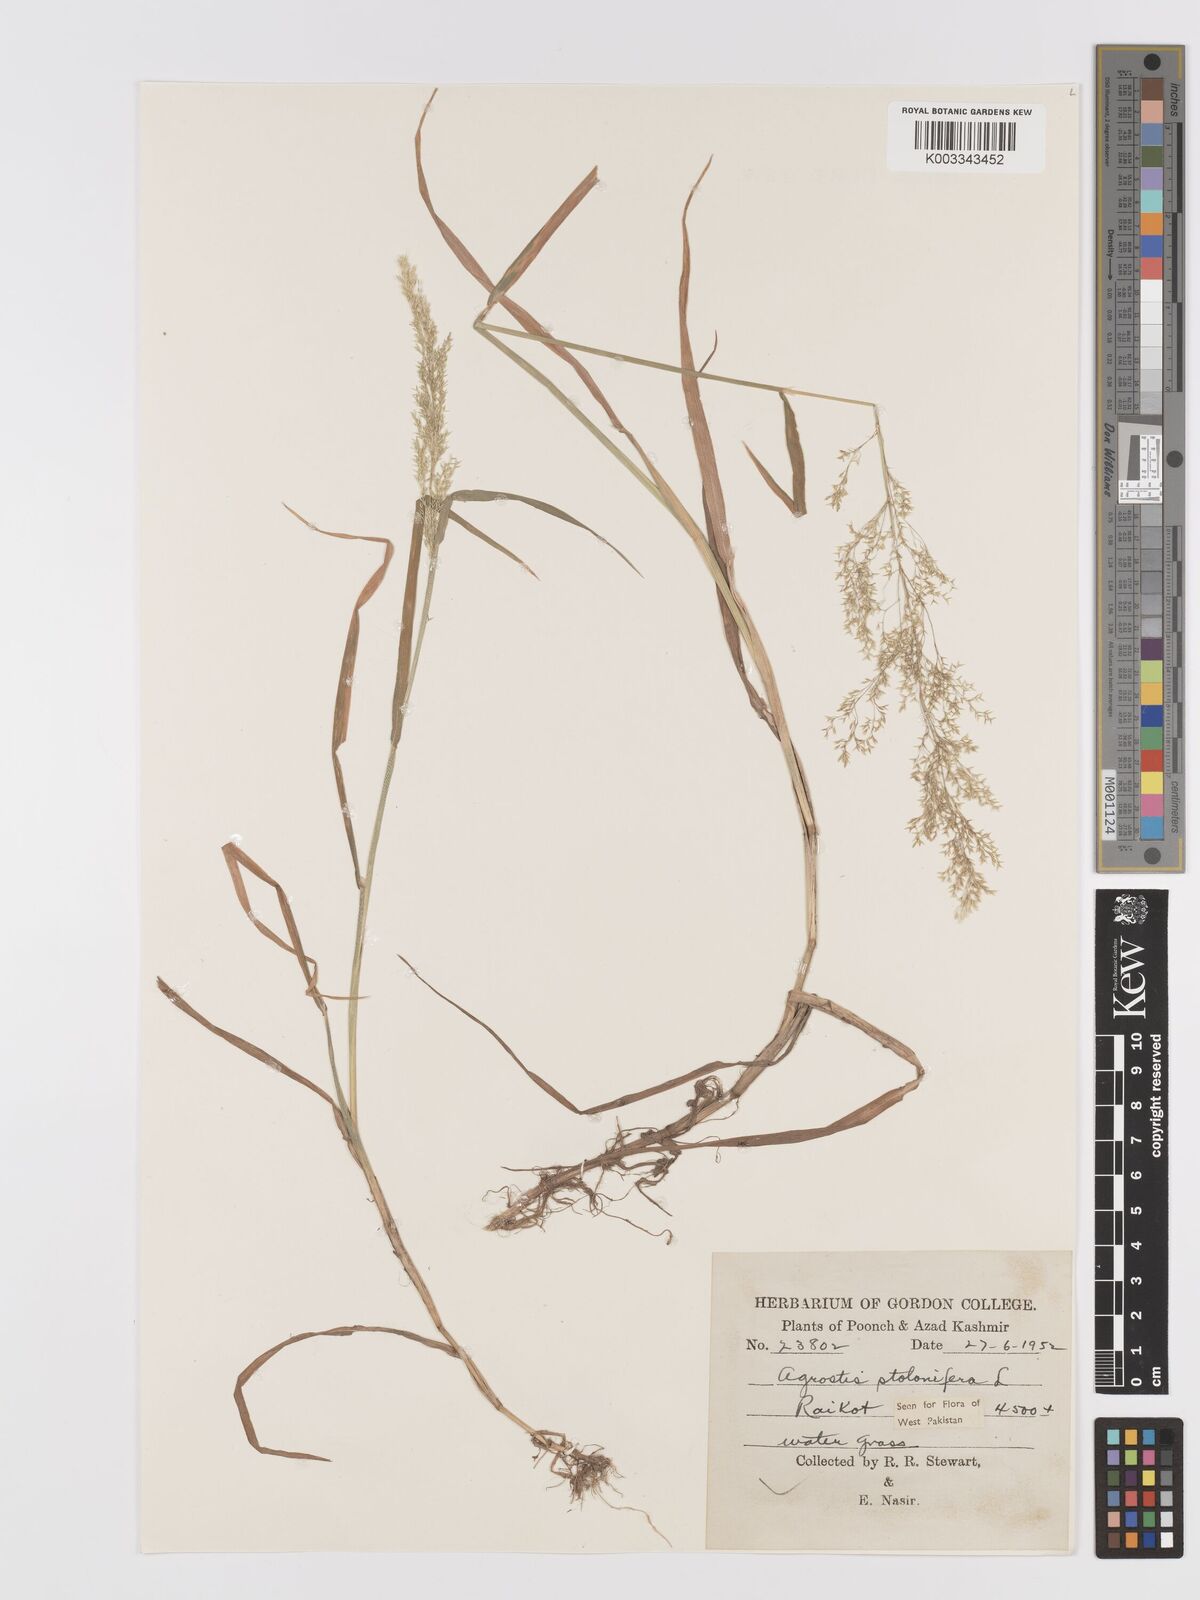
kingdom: Plantae
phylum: Tracheophyta
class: Liliopsida
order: Poales
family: Poaceae
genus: Agrostis
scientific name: Agrostis stolonifera
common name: Creeping bentgrass
